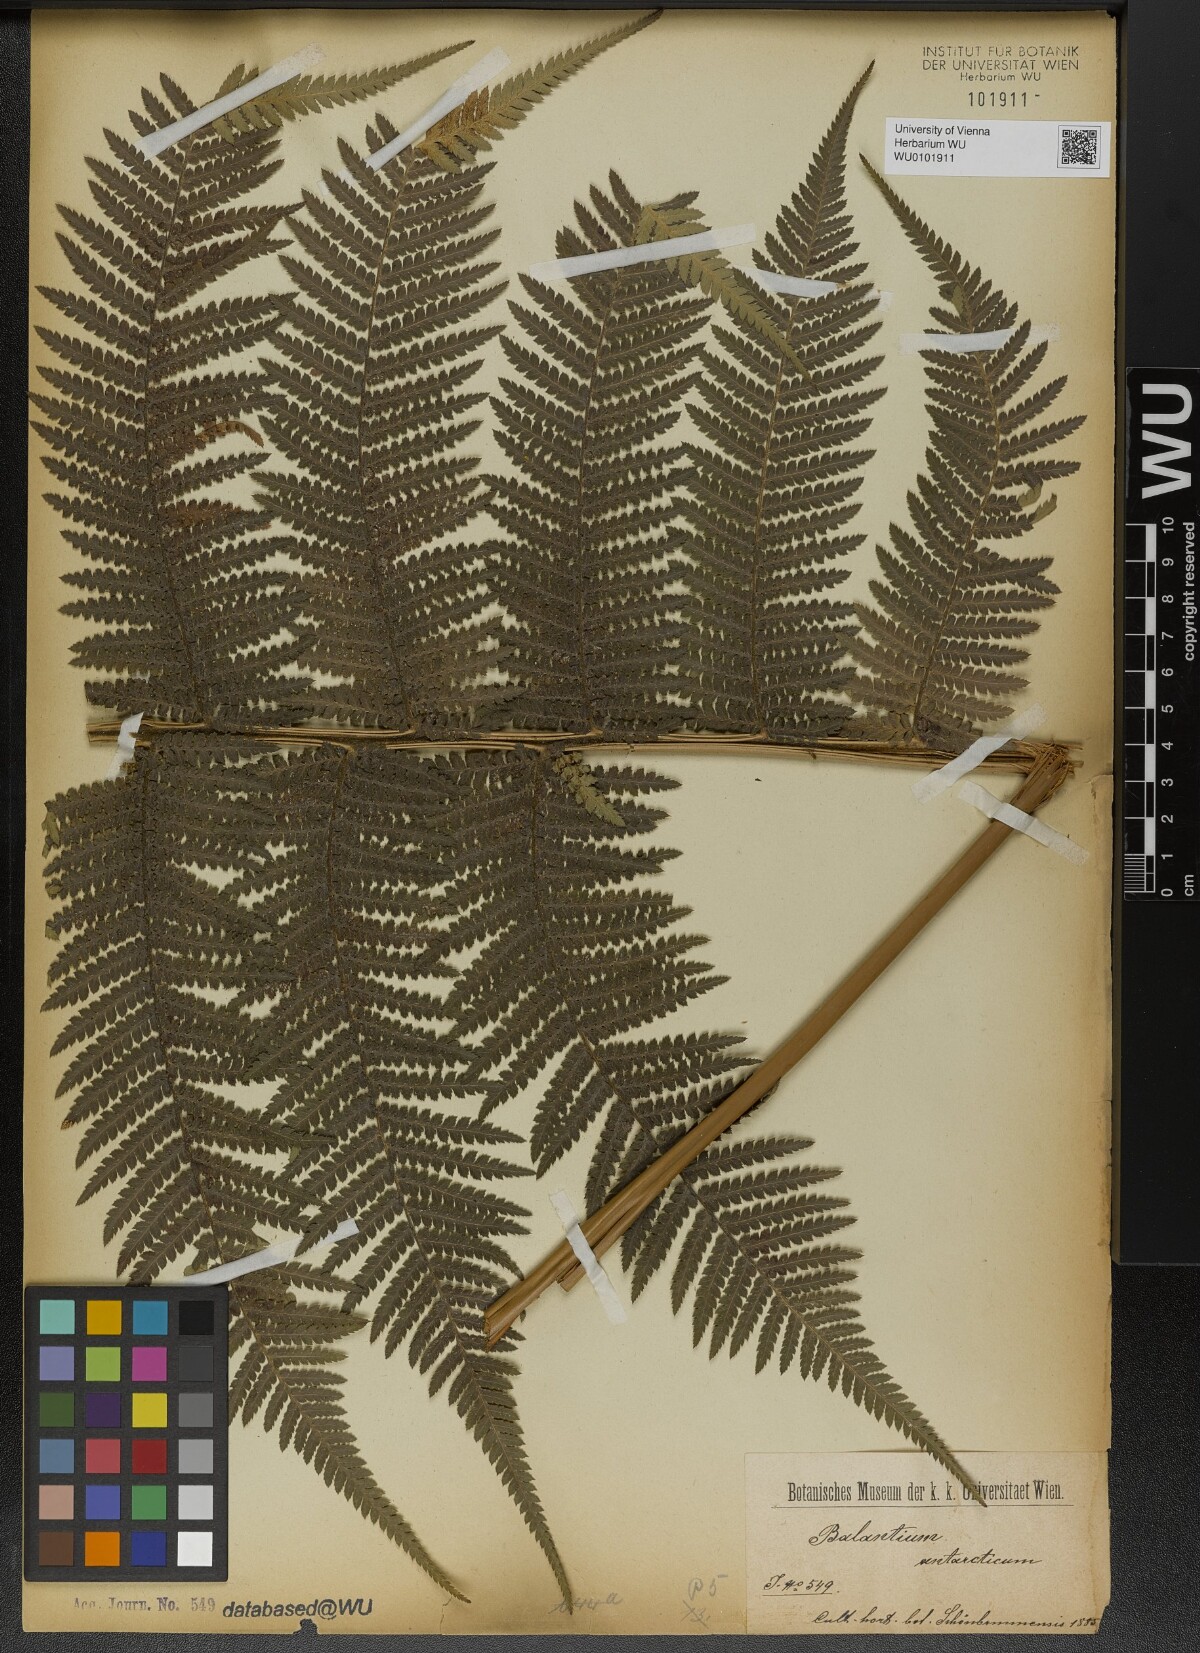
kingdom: Plantae
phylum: Tracheophyta
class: Polypodiopsida
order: Cyatheales
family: Dicksoniaceae
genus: Dicksonia
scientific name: Dicksonia antarctica
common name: Australian treefern
